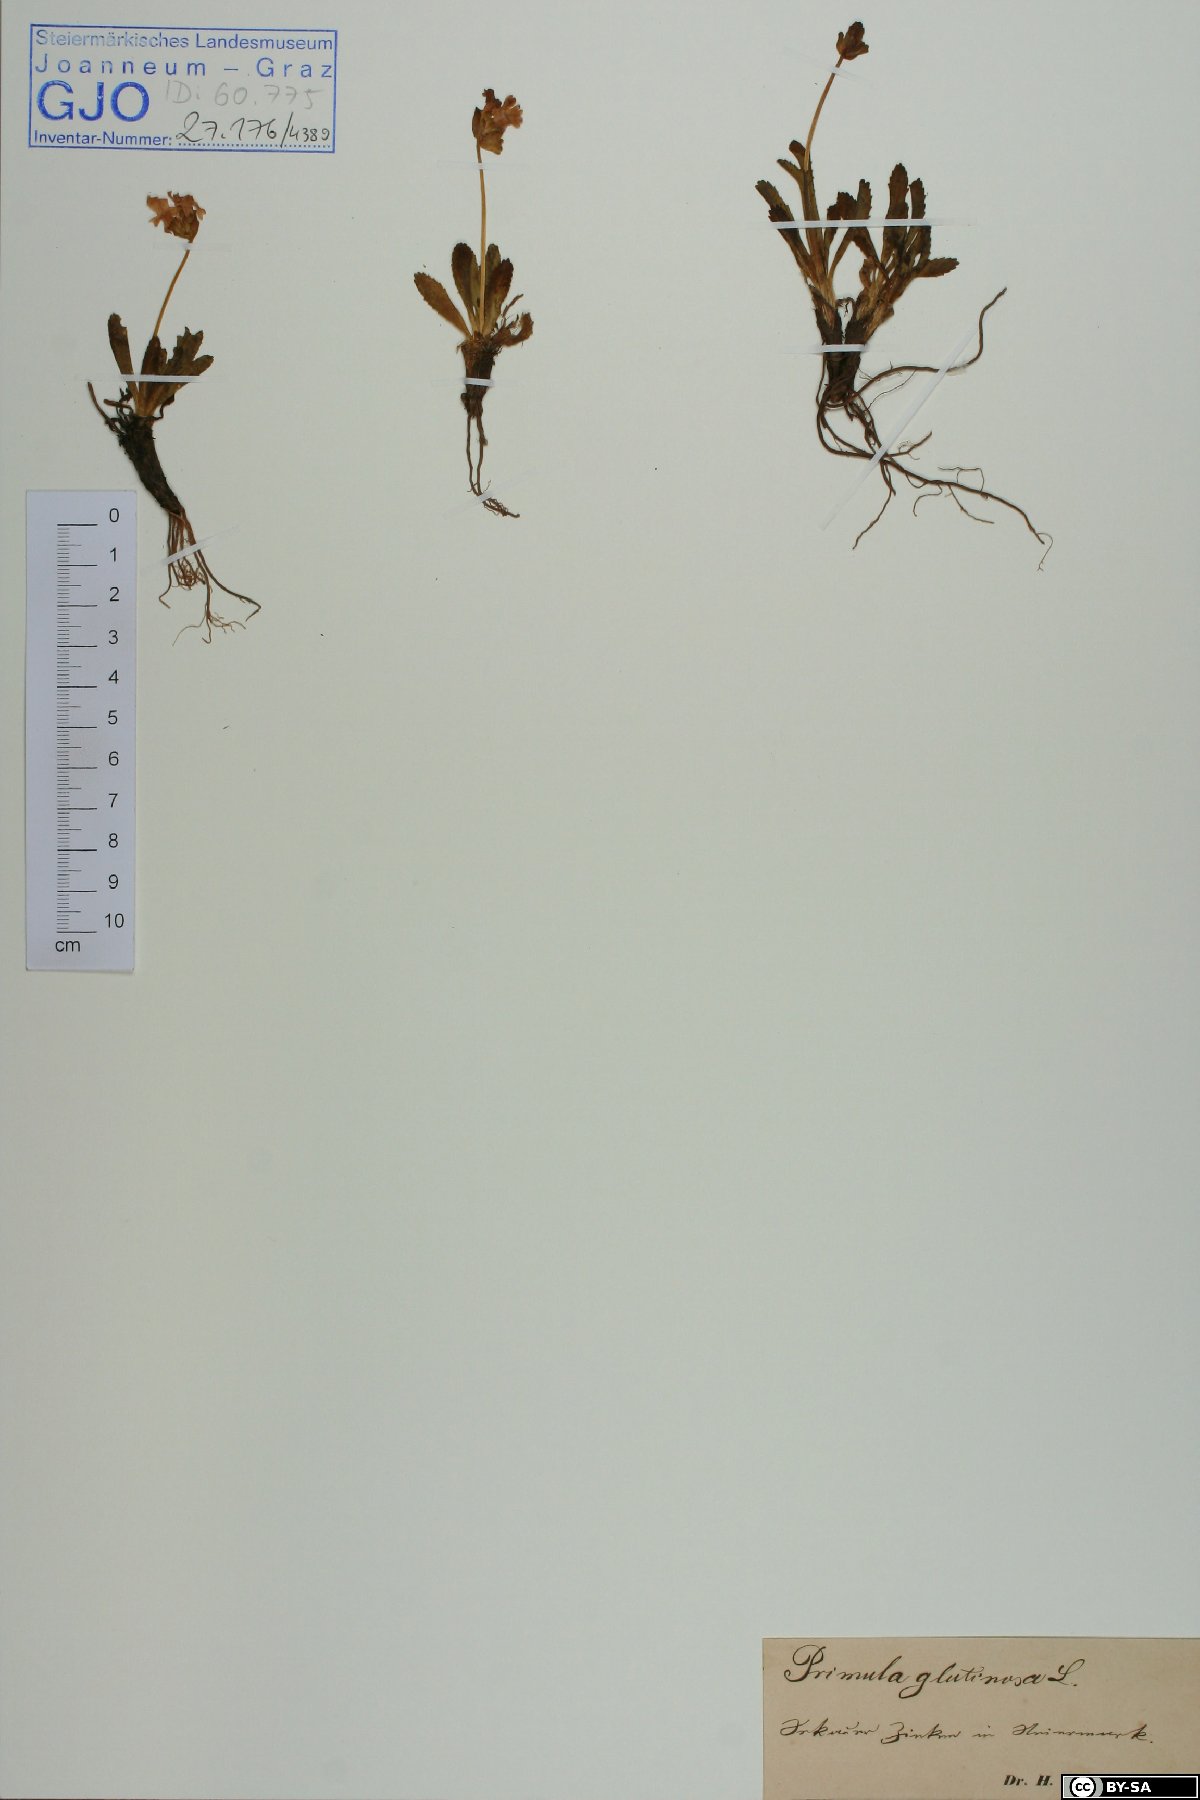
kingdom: Plantae
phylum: Tracheophyta
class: Magnoliopsida
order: Ericales
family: Primulaceae
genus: Primula
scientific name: Primula glutinosa
